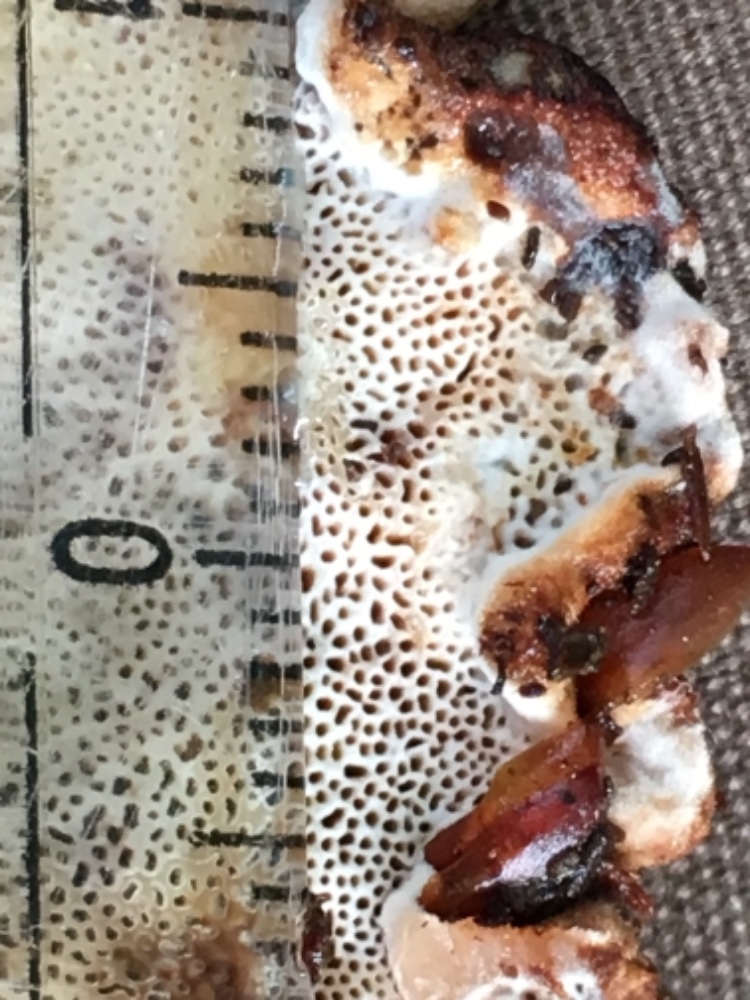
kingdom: Fungi
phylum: Basidiomycota
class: Agaricomycetes
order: Polyporales
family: Ischnodermataceae
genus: Ischnoderma
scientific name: Ischnoderma benzoinum
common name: gran-tjæreporesvamp
